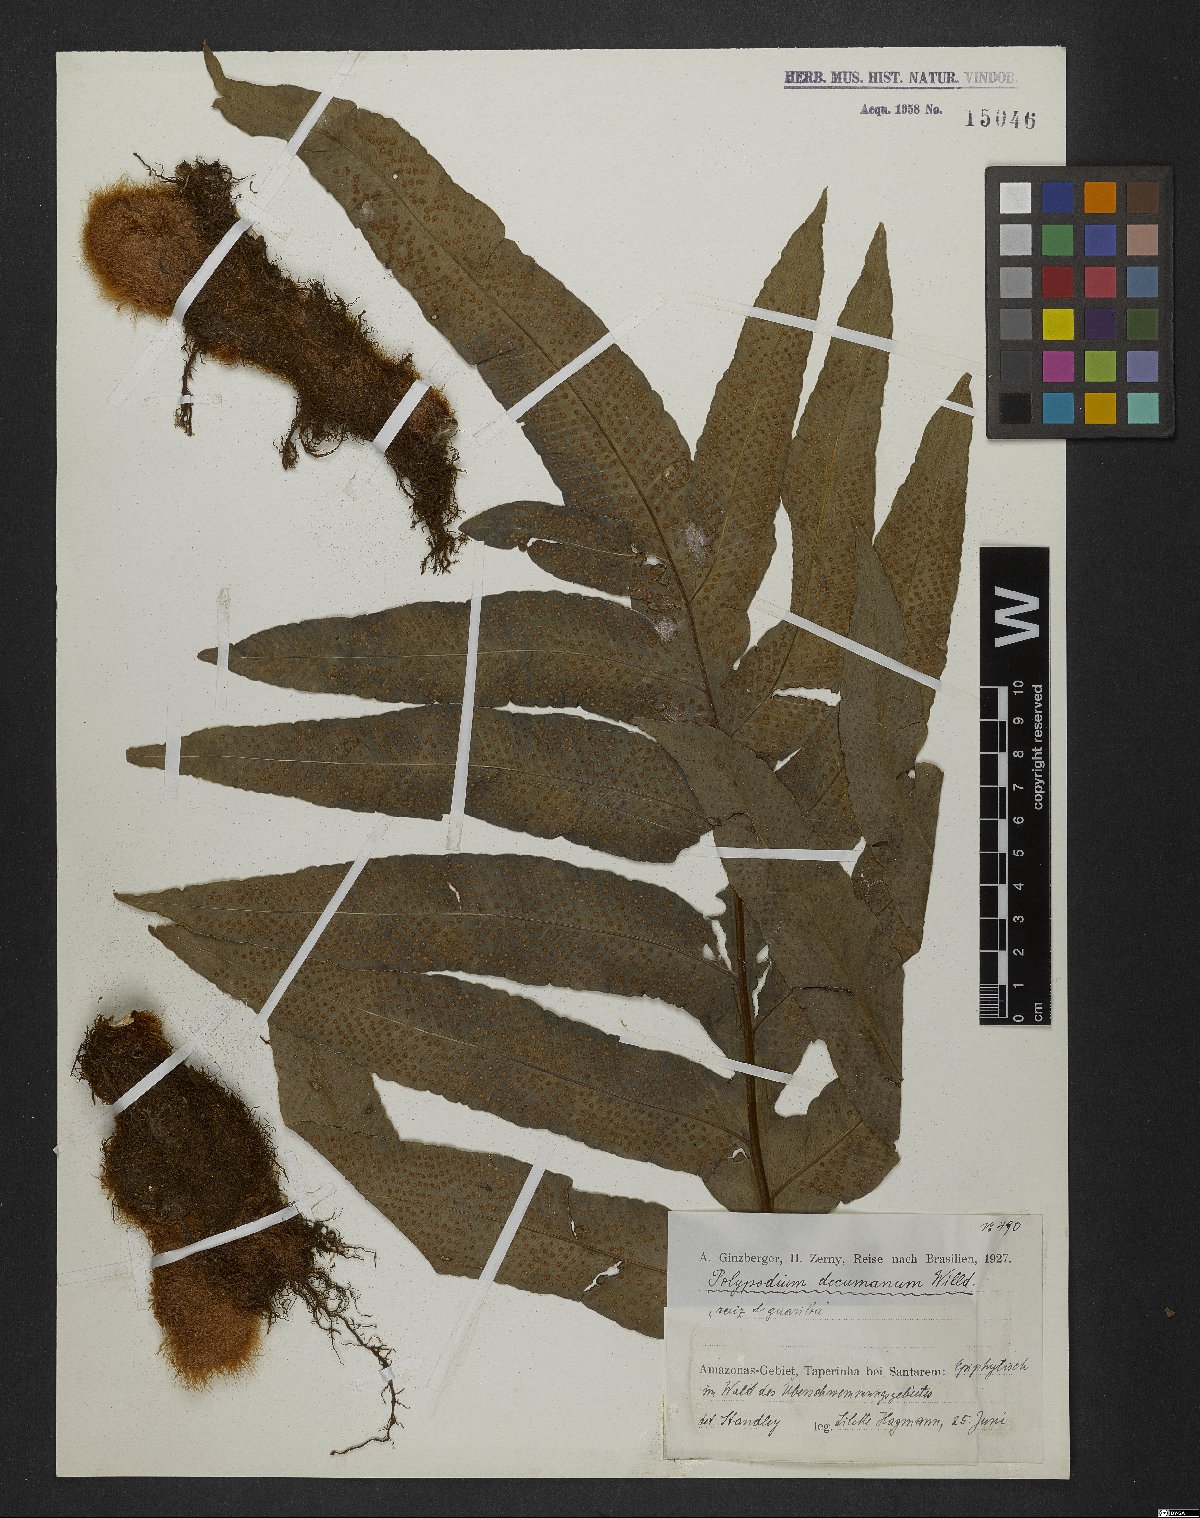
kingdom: Plantae
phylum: Tracheophyta
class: Polypodiopsida
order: Polypodiales
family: Polypodiaceae
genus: Phlebodium
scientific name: Phlebodium decumanum
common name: Golden polypod
